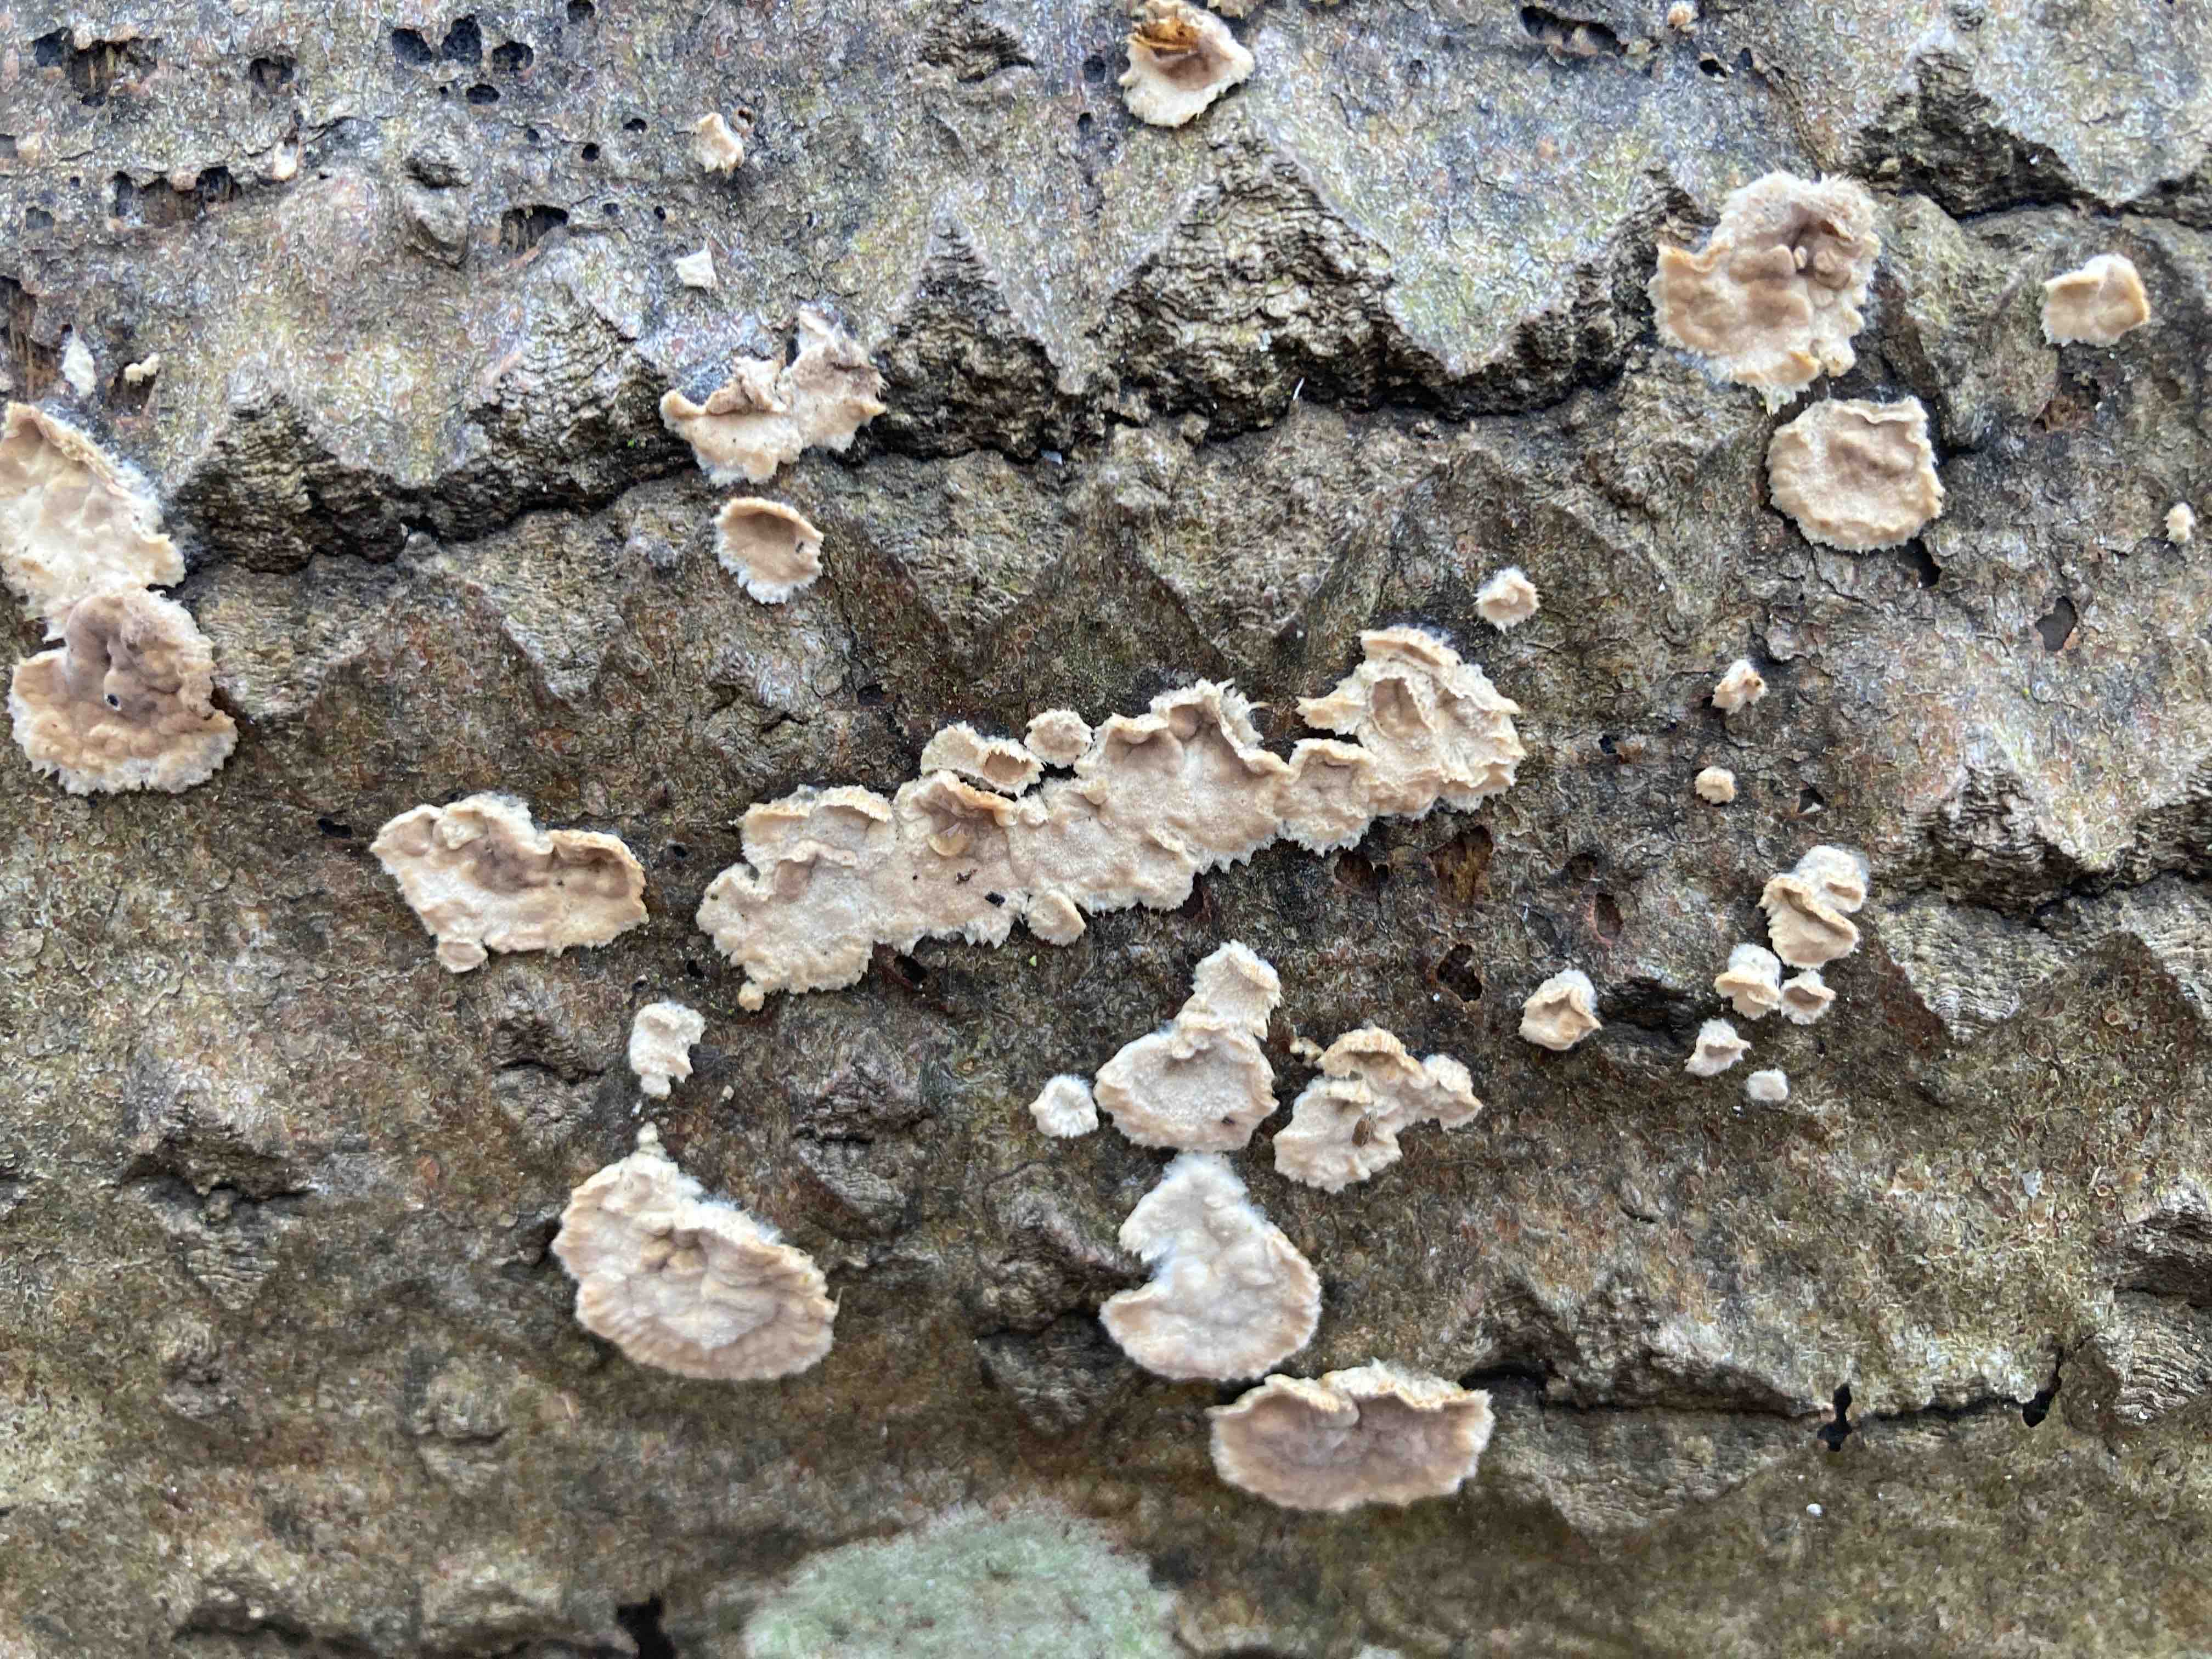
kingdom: Fungi
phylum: Basidiomycota
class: Agaricomycetes
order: Agaricales
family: Physalacriaceae
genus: Cylindrobasidium
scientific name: Cylindrobasidium evolvens
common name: sprækkehinde
